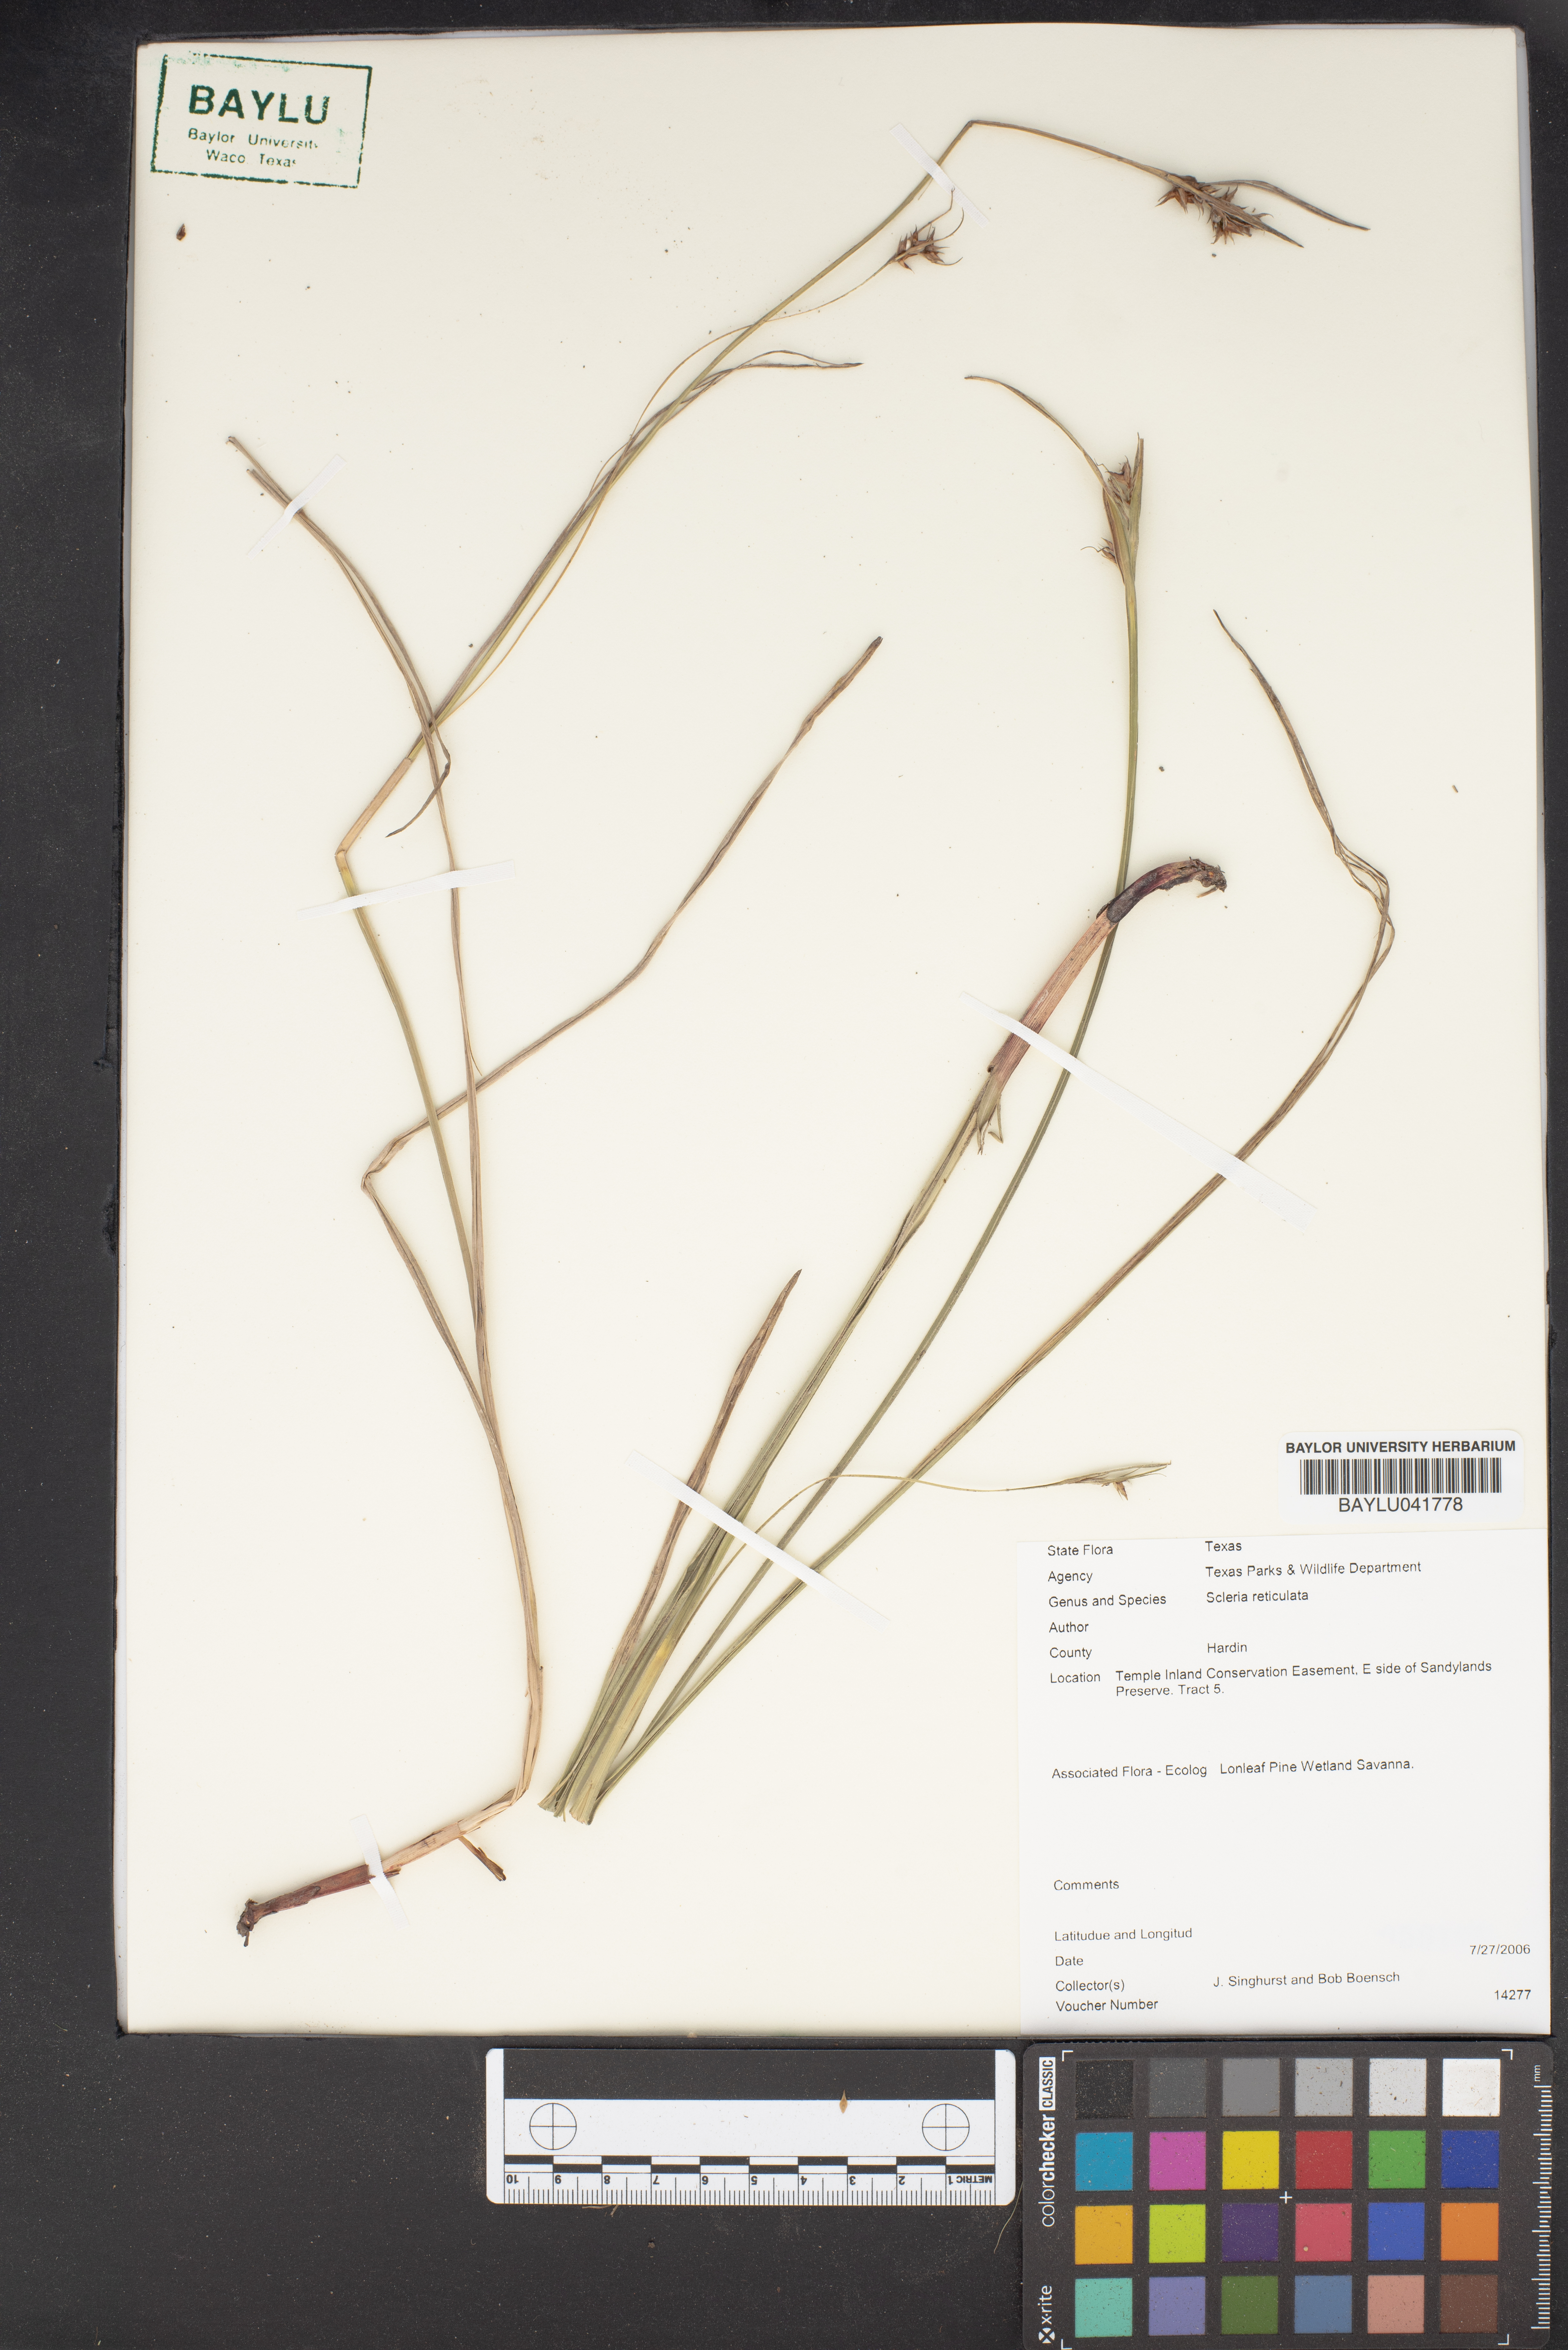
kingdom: Plantae
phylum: Tracheophyta
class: Liliopsida
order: Poales
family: Cyperaceae
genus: Scleria
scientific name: Scleria reticularis
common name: Netted nutrush
